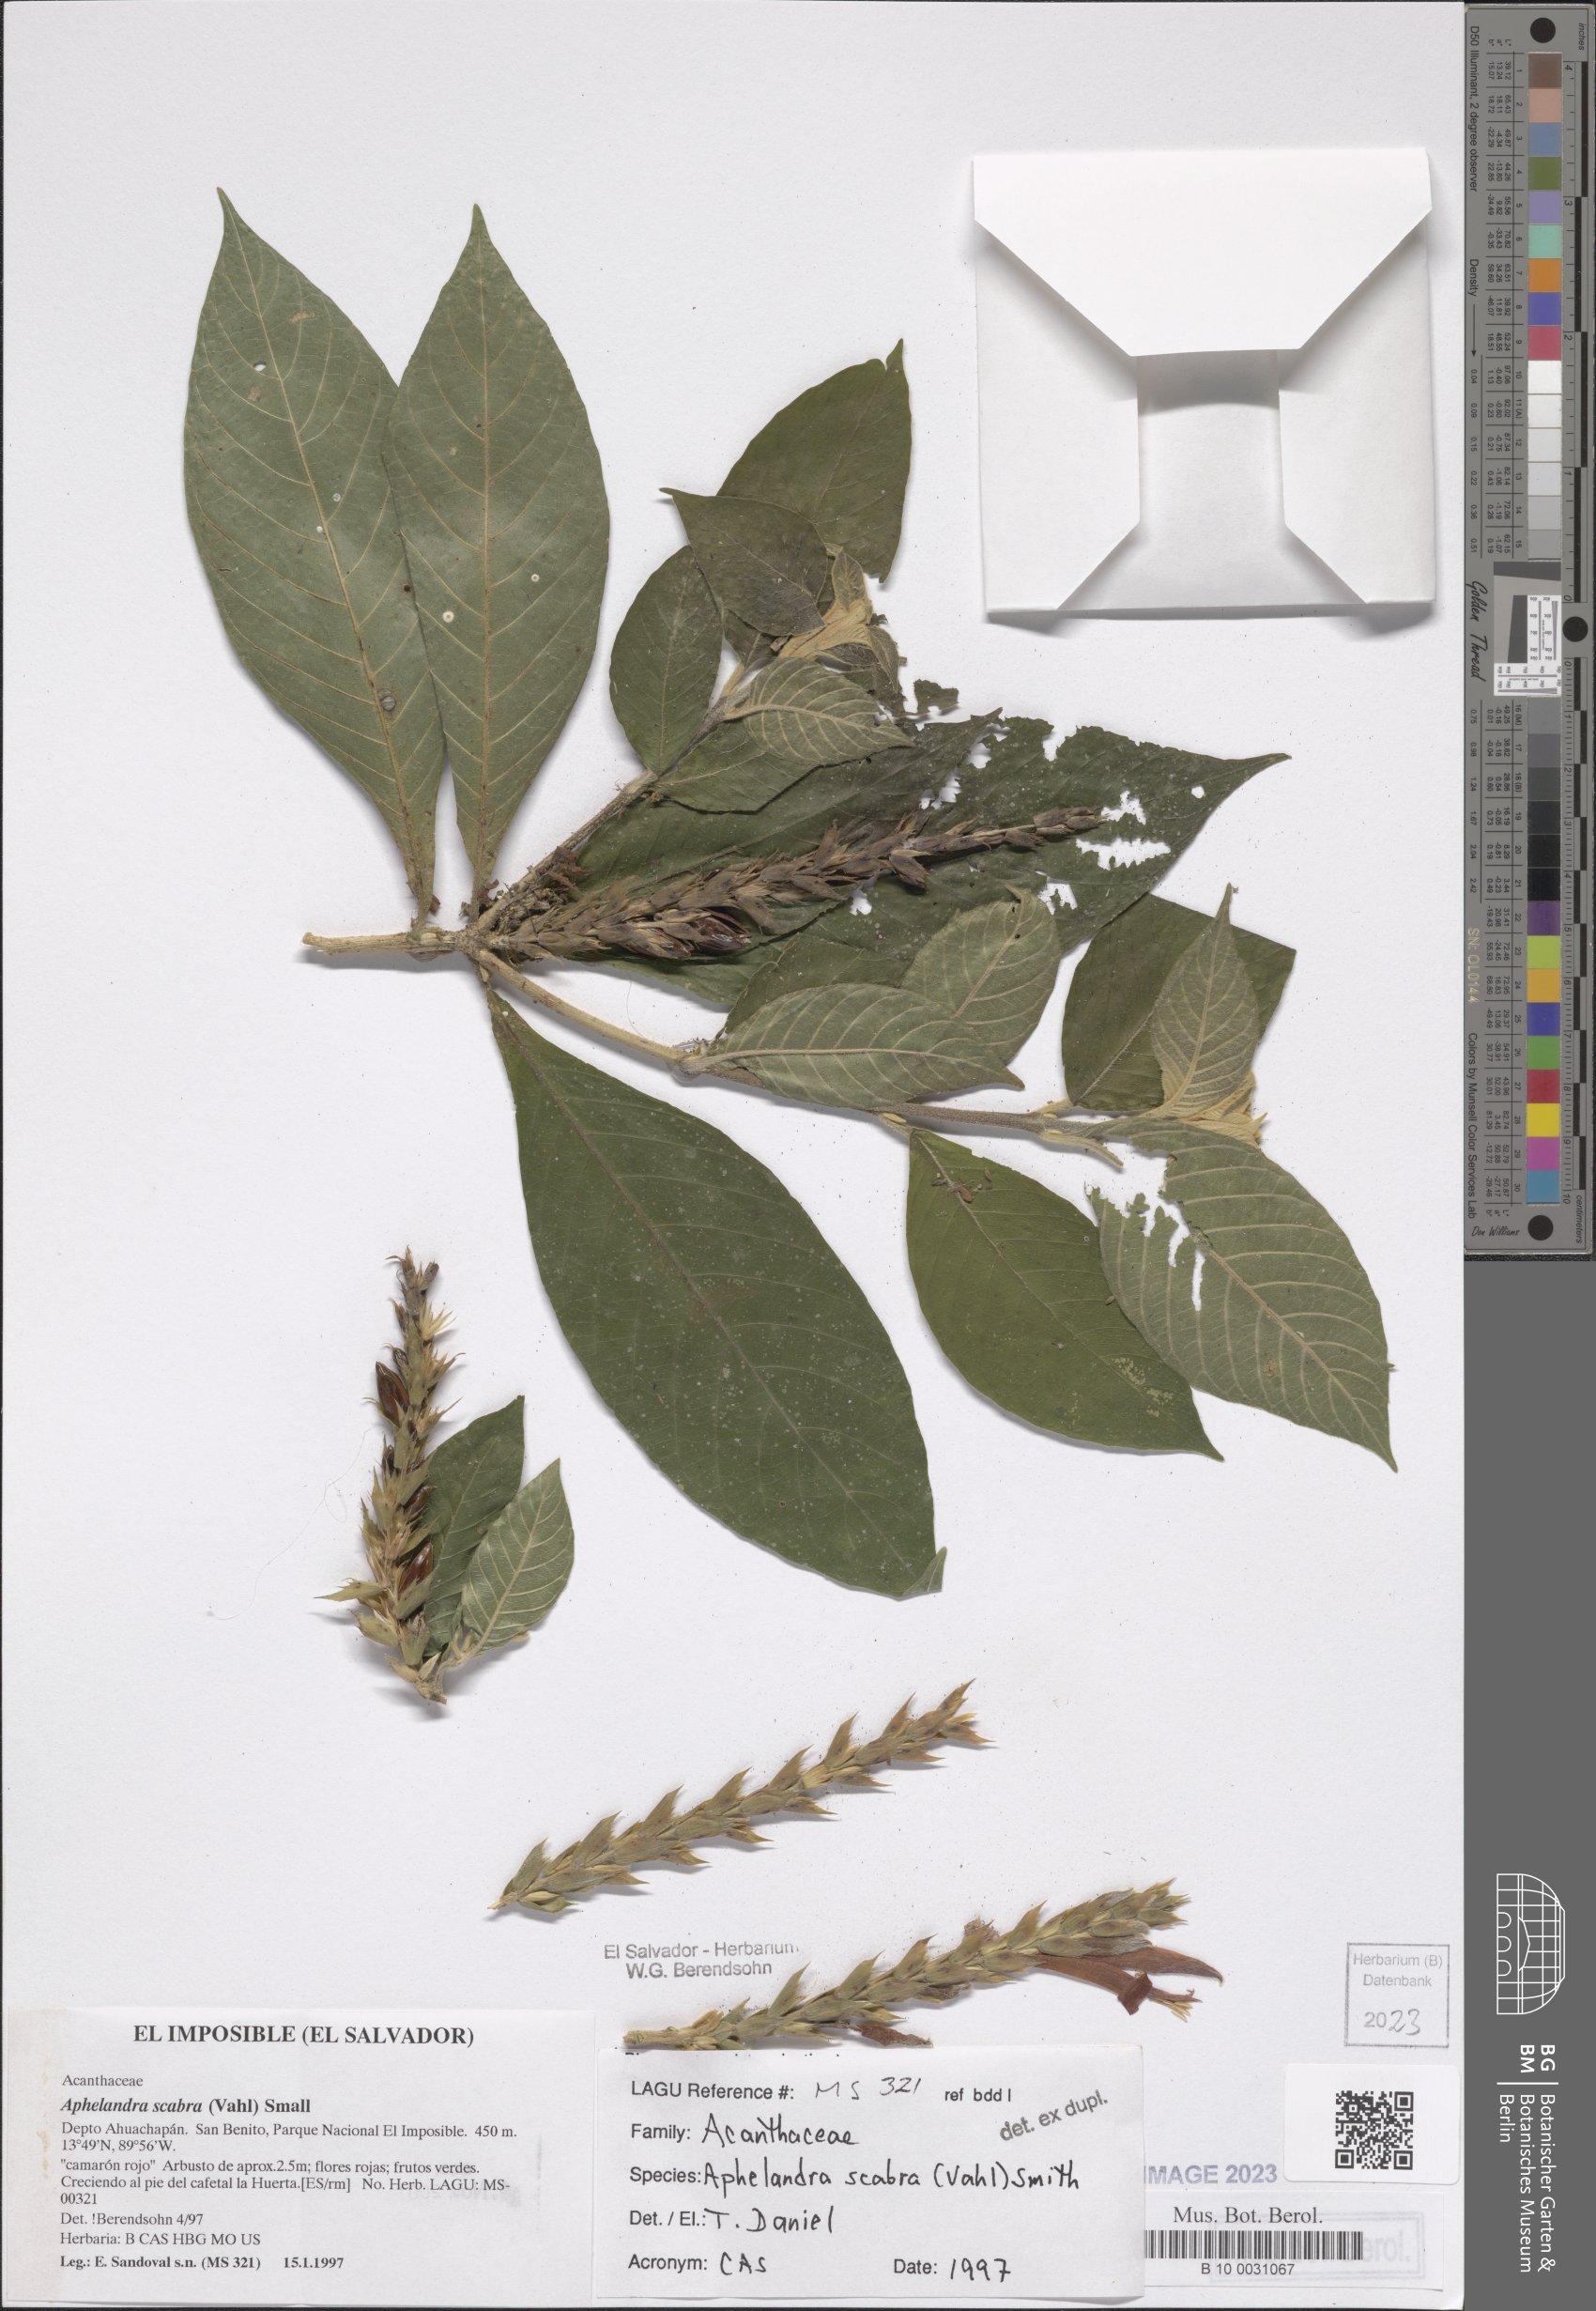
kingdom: Plantae
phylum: Tracheophyta
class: Magnoliopsida
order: Lamiales
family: Acanthaceae
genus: Aphelandra
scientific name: Aphelandra scabra
